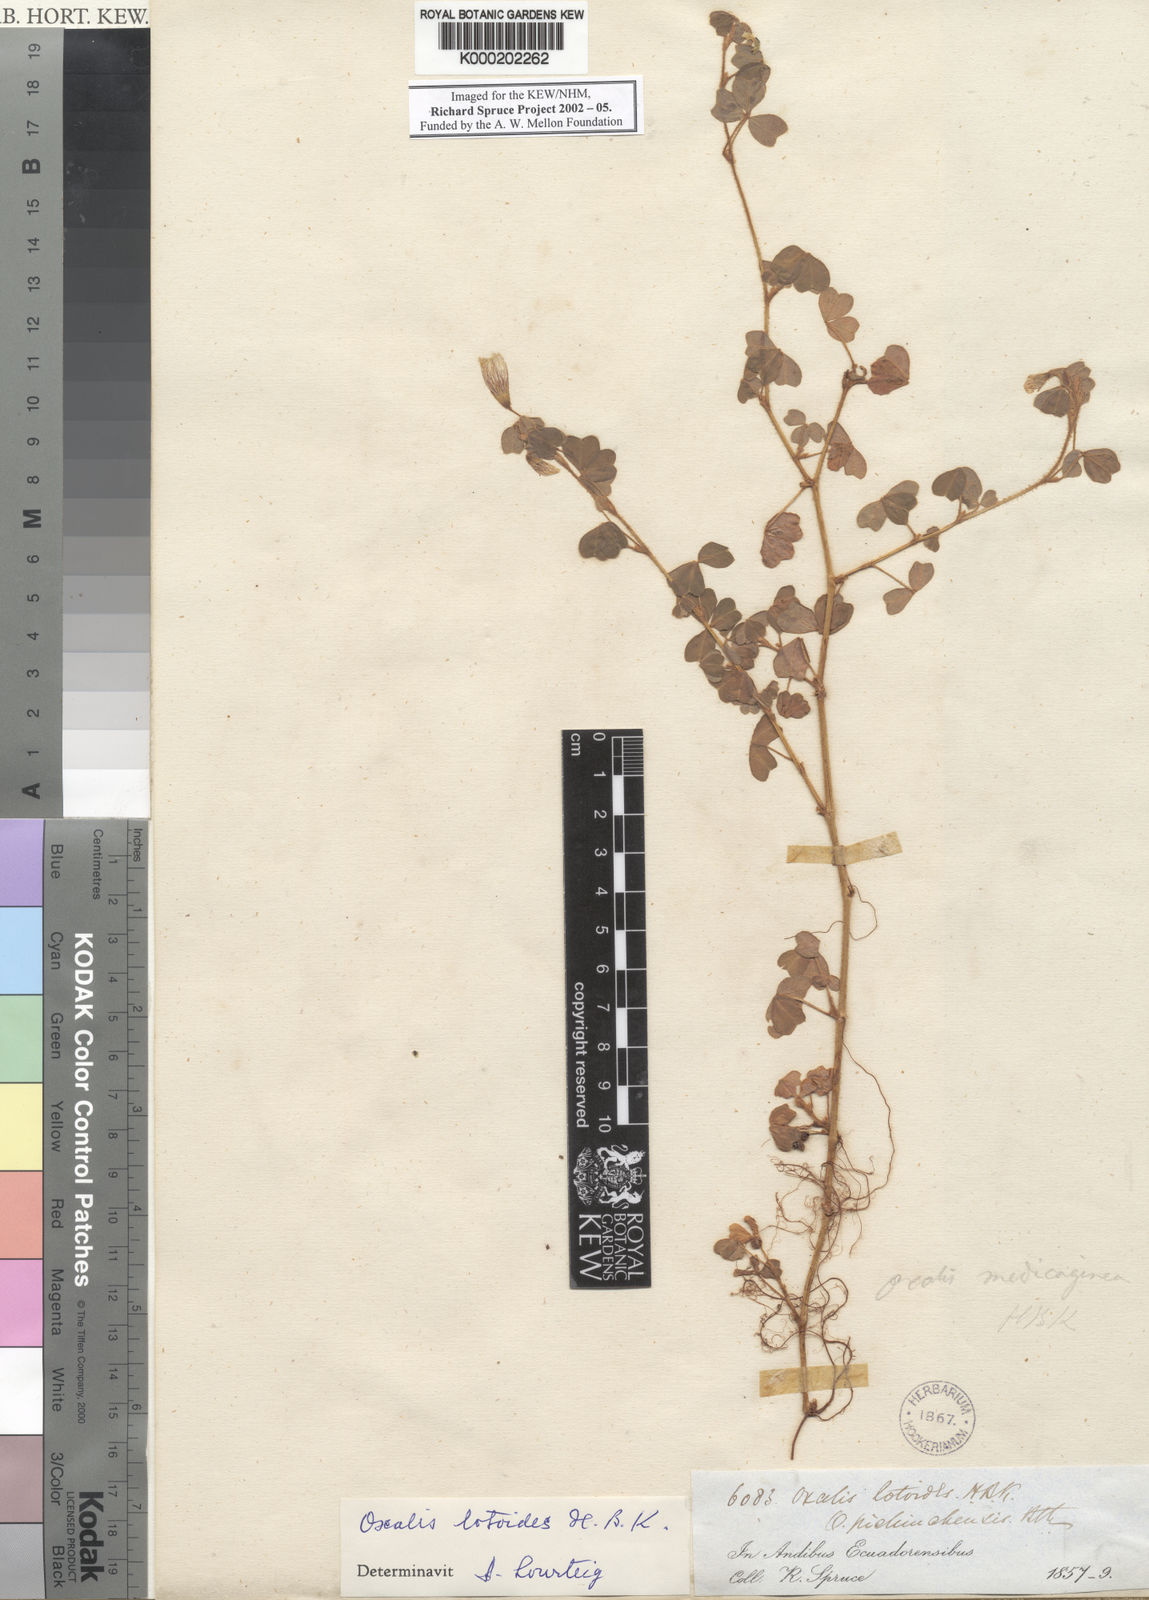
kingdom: Plantae
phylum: Tracheophyta
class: Magnoliopsida
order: Oxalidales
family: Oxalidaceae
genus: Oxalis
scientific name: Oxalis lotoides
